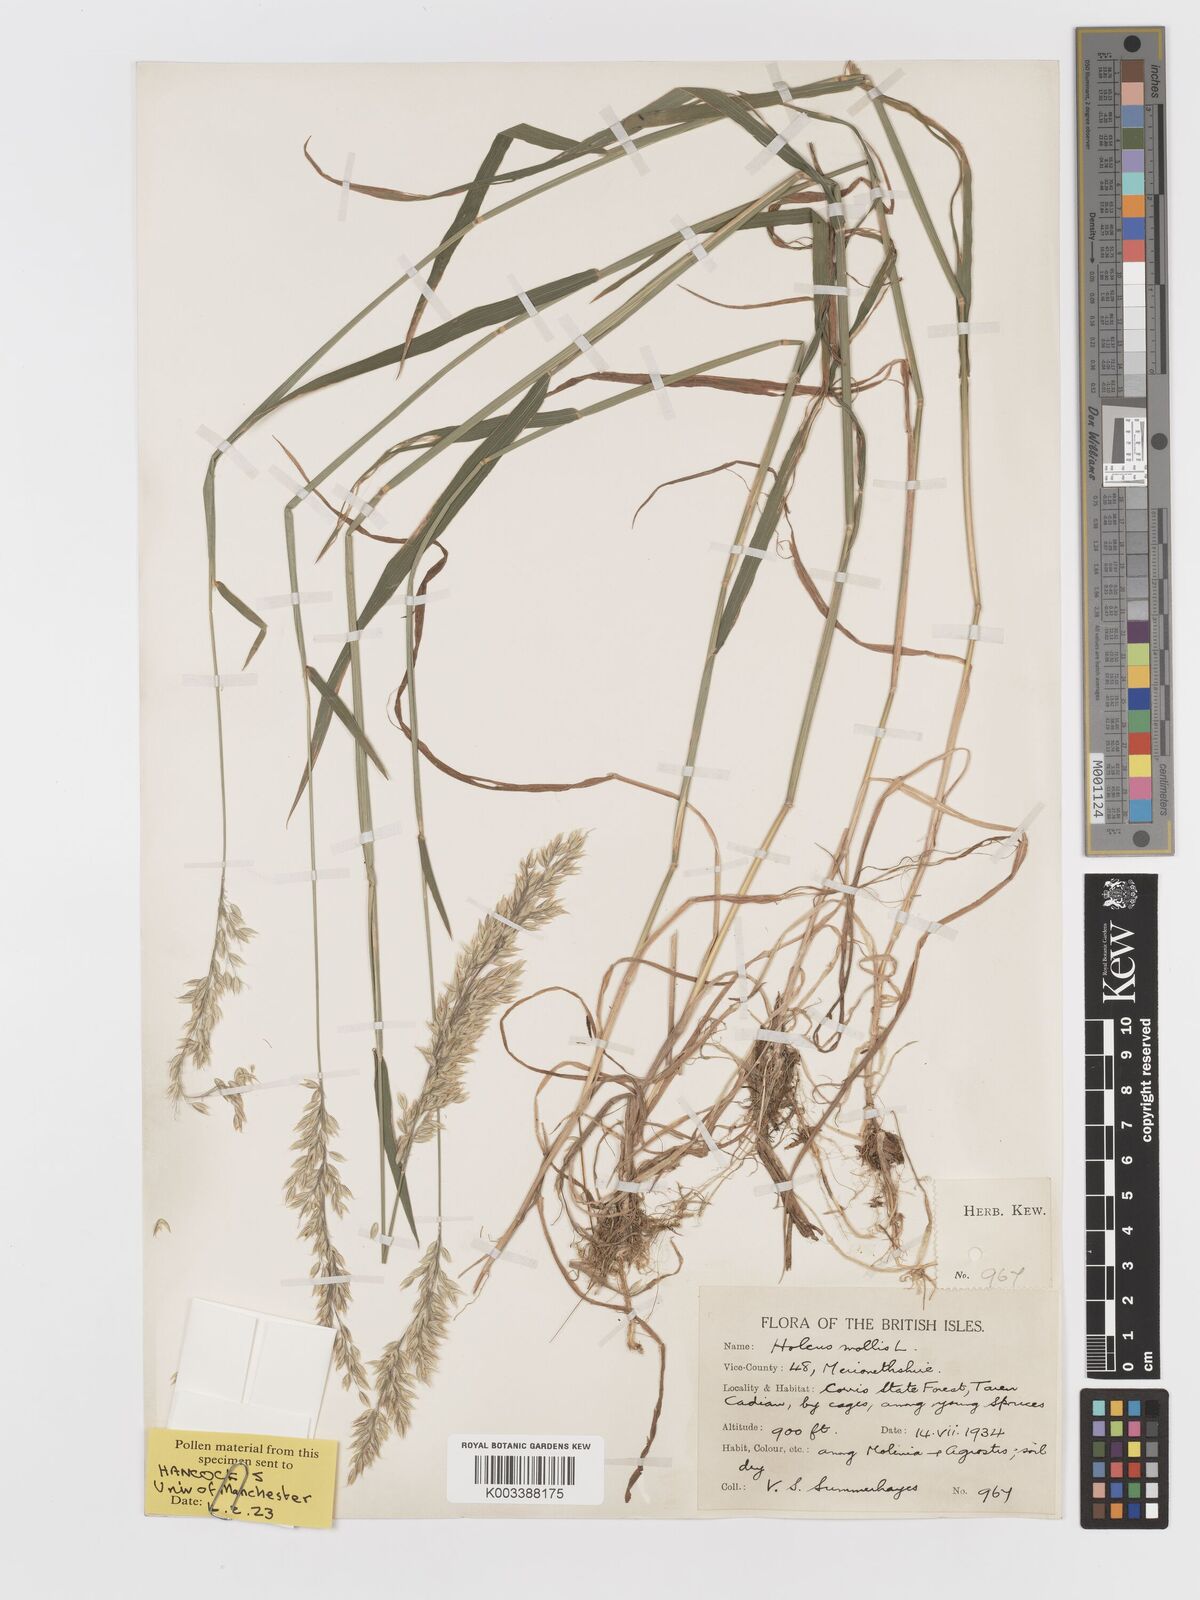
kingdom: Plantae
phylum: Tracheophyta
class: Liliopsida
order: Poales
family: Poaceae
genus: Holcus
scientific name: Holcus mollis
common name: Creeping velvetgrass
